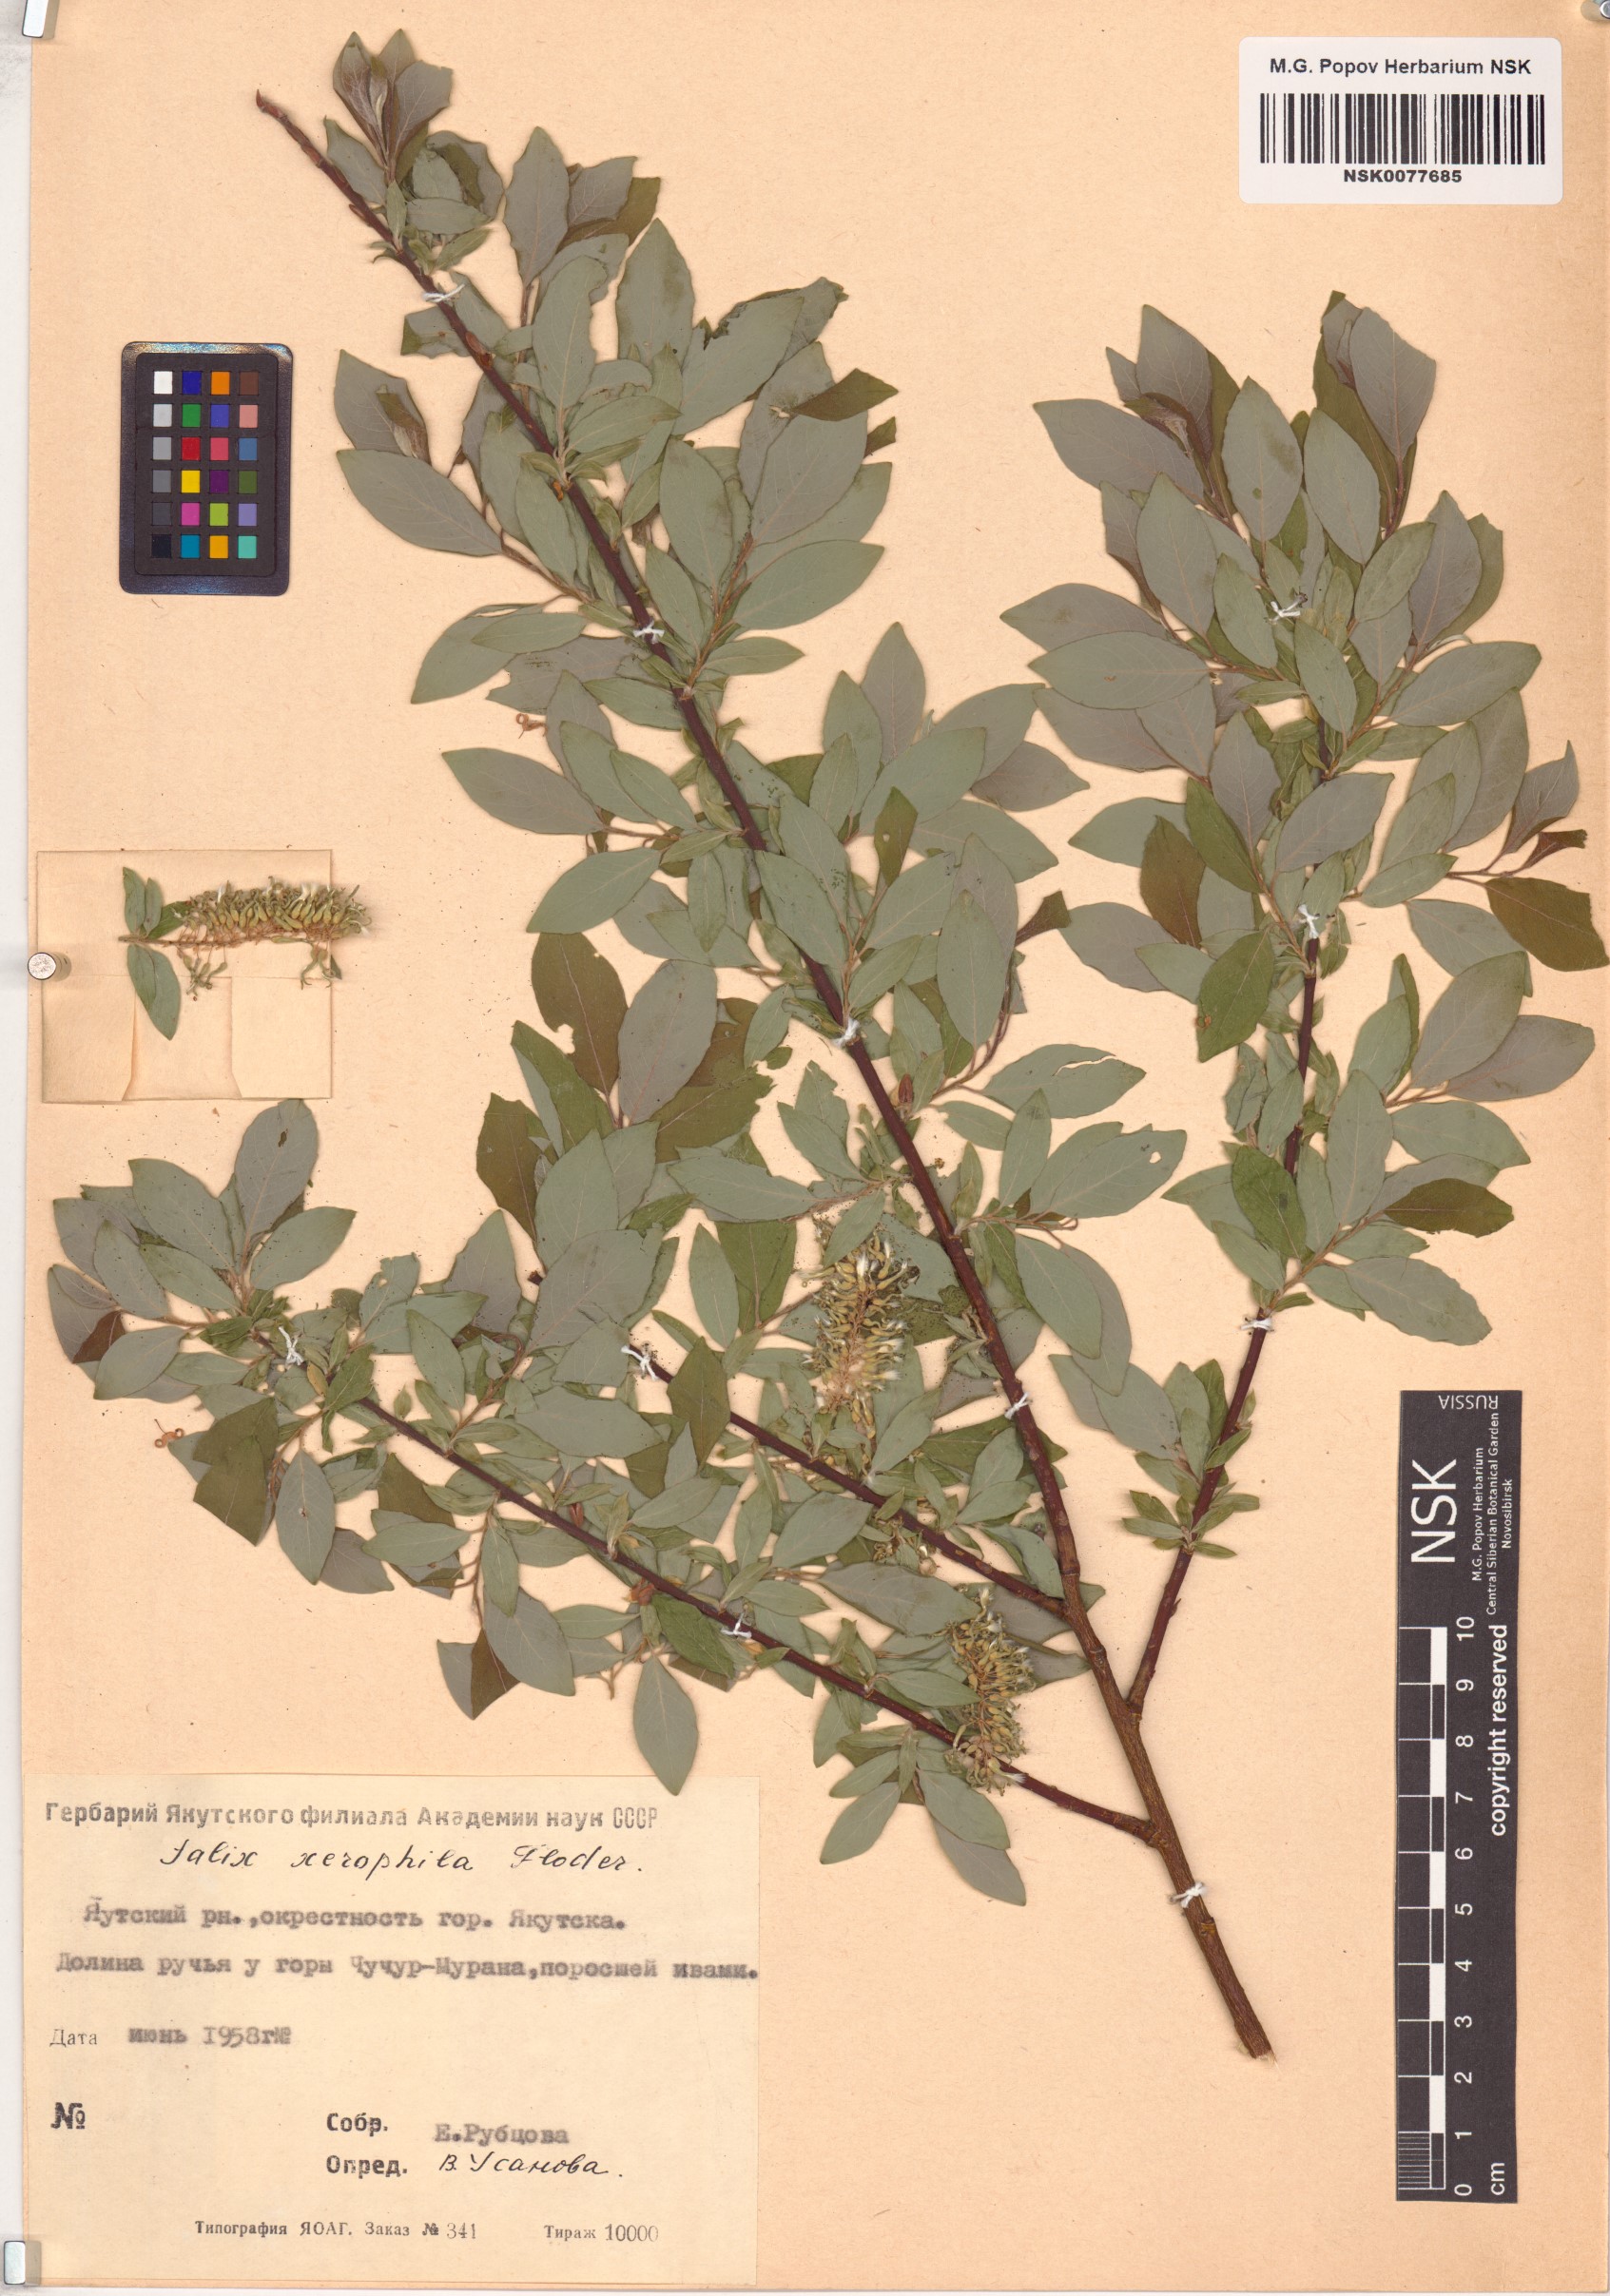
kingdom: Plantae
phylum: Tracheophyta
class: Magnoliopsida
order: Malpighiales
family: Salicaceae
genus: Salix
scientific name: Salix bebbiana
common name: Bebb's willow
